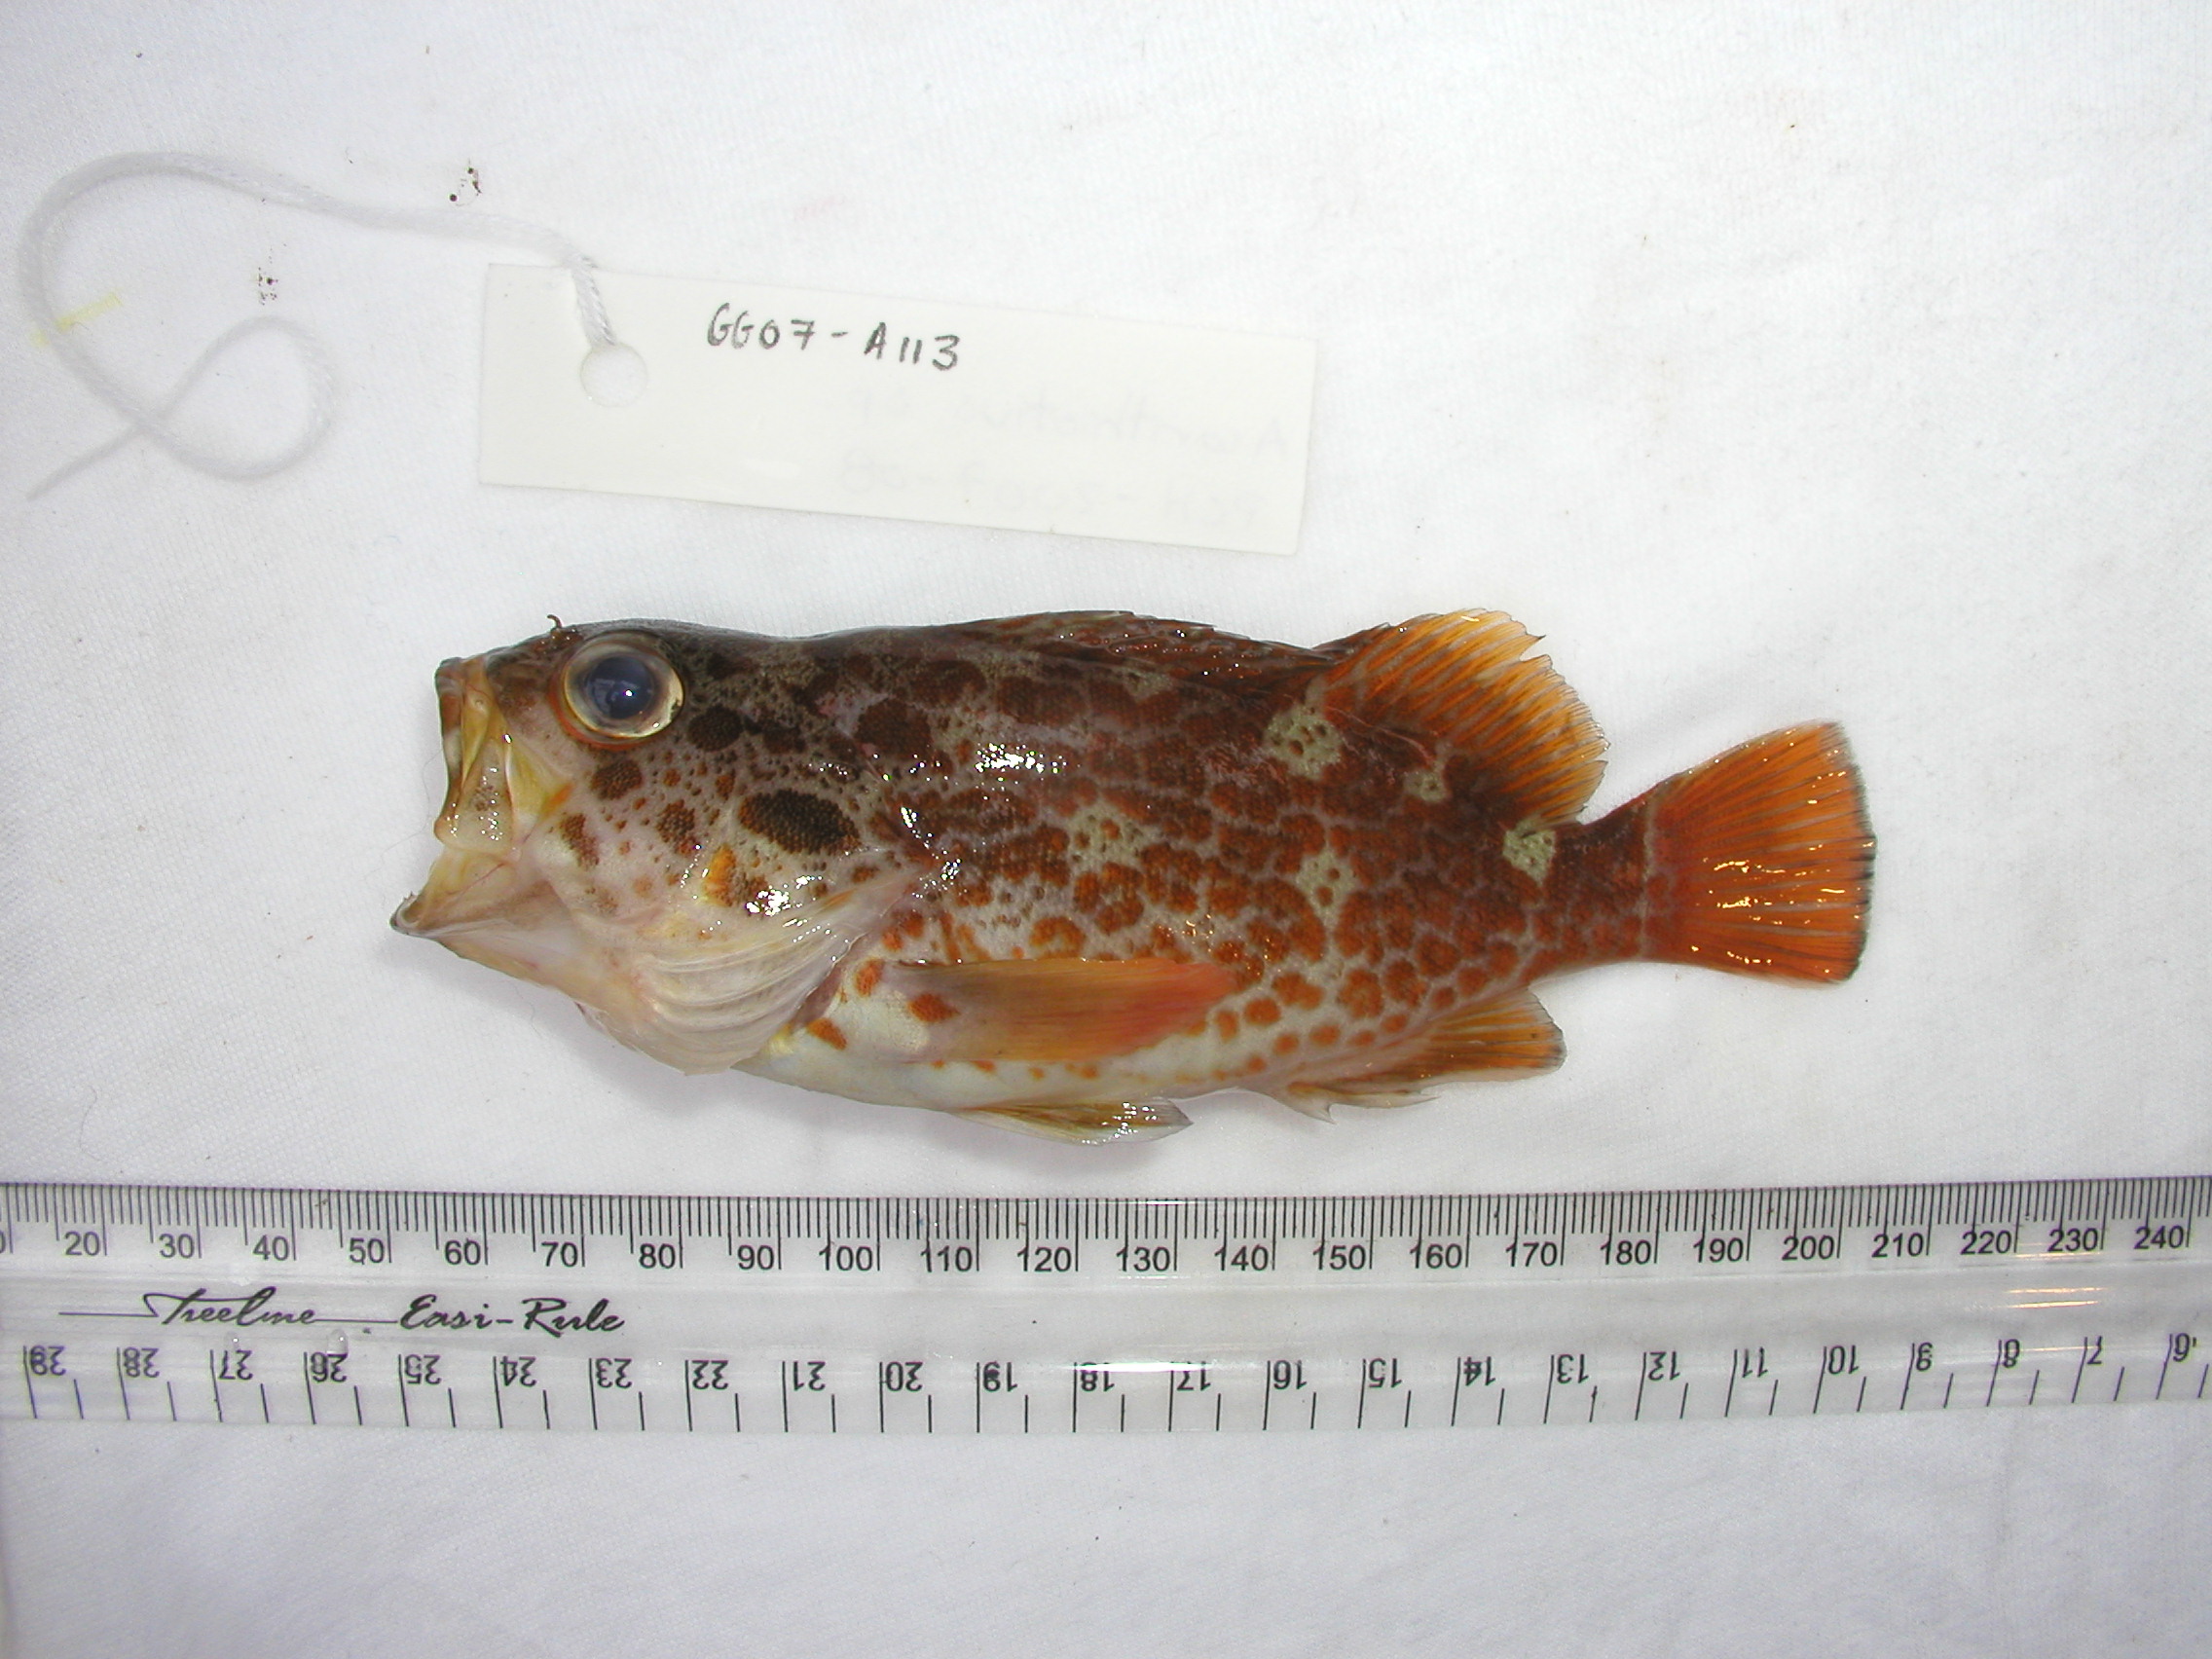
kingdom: Animalia
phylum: Chordata
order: Perciformes
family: Serranidae
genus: Acanthistius
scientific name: Acanthistius joanae
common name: Scalyjaw koester
